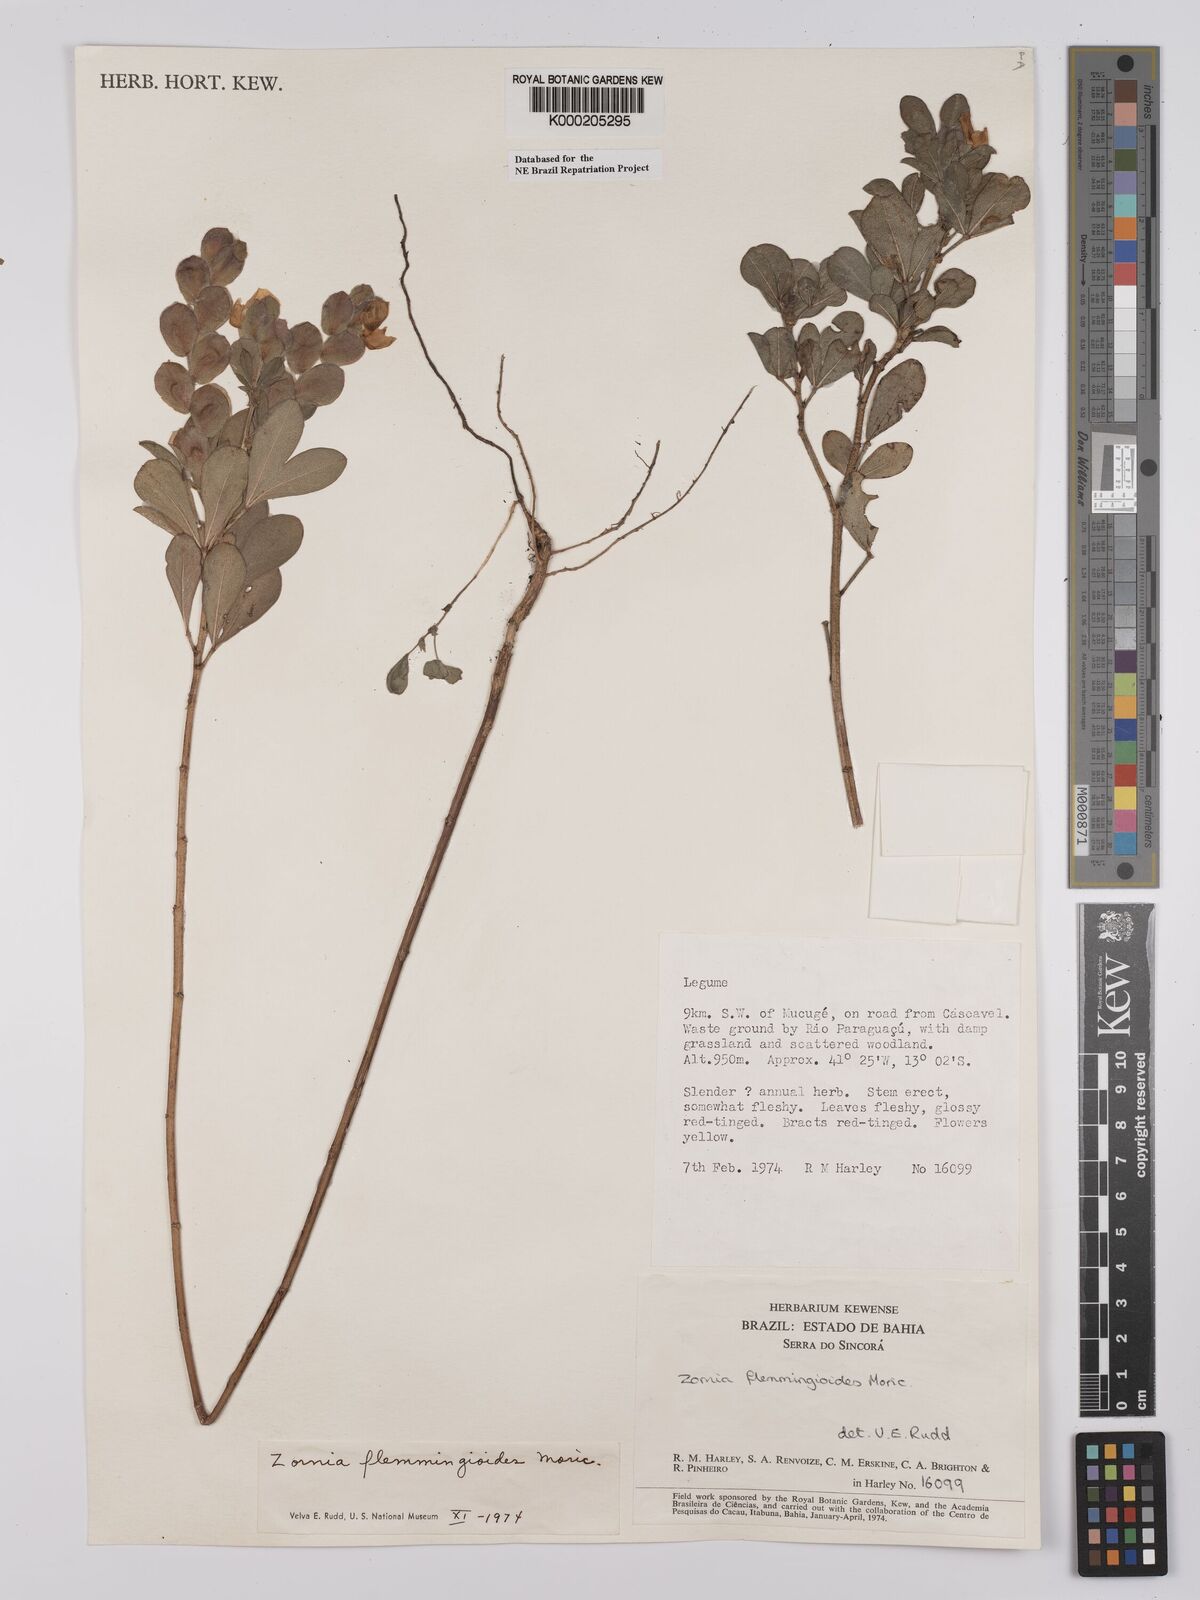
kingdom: Plantae
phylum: Tracheophyta
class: Magnoliopsida
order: Fabales
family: Fabaceae
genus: Zornia
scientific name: Zornia flemmingioides
